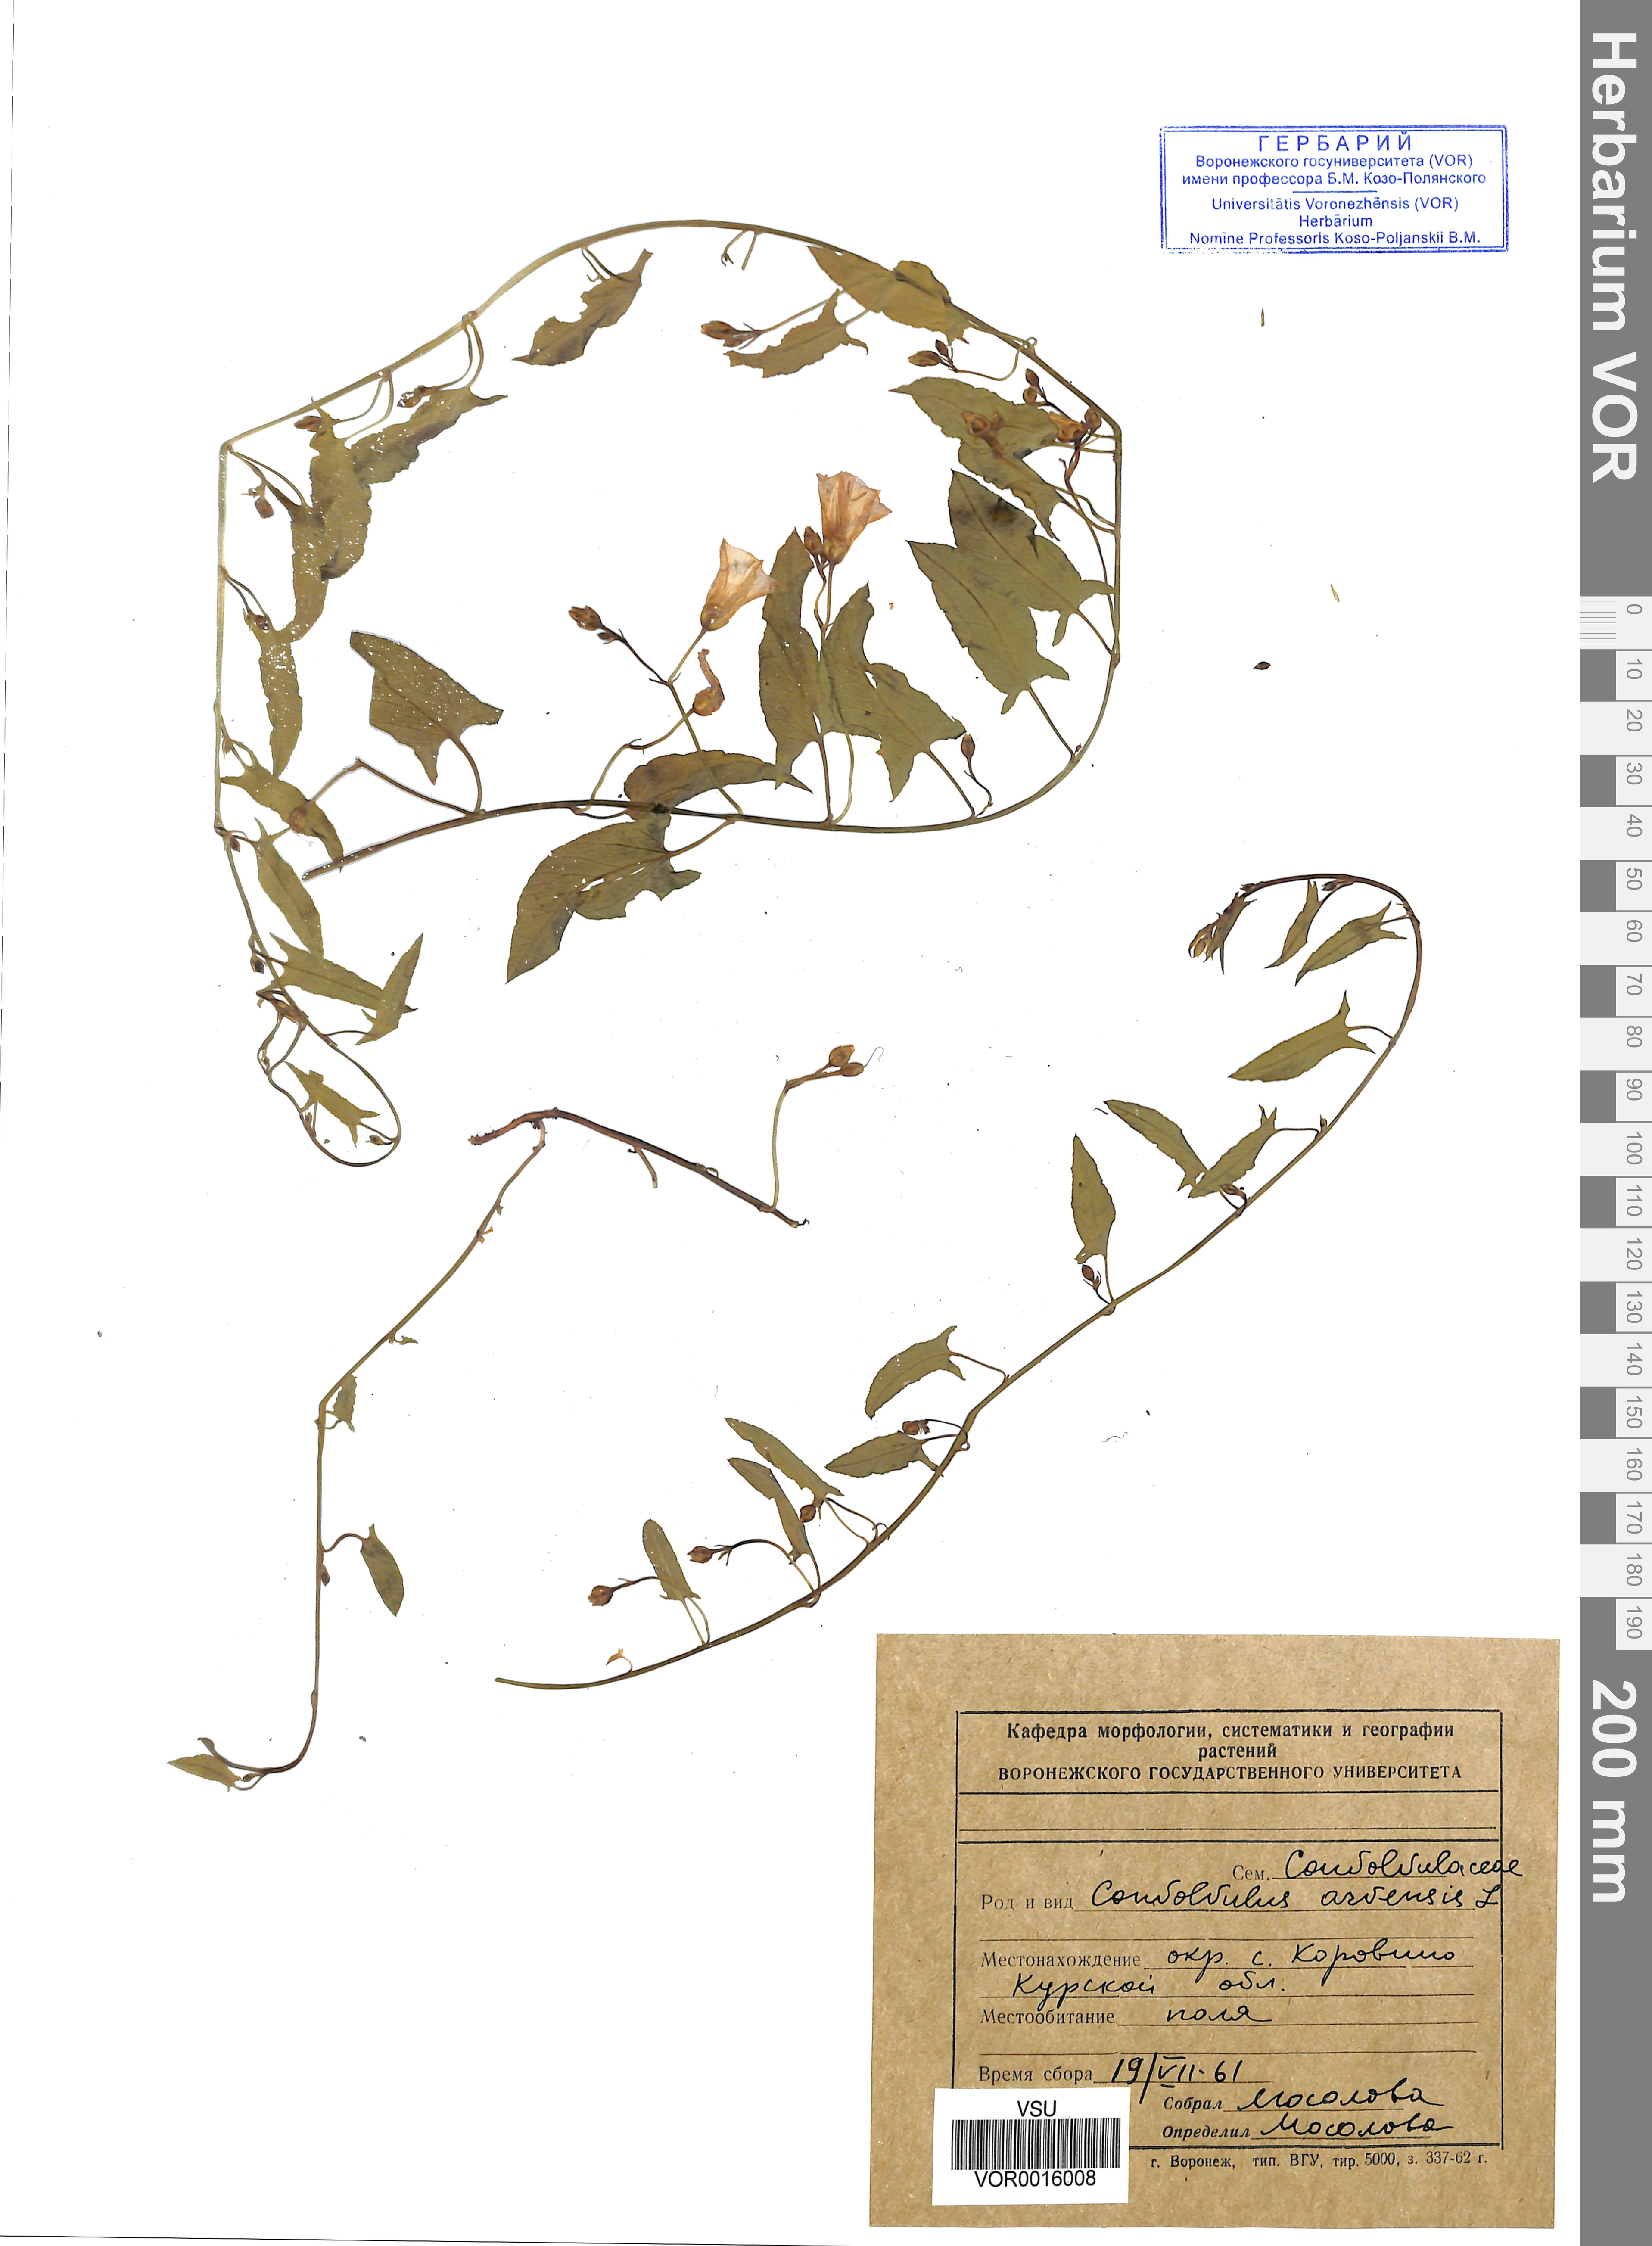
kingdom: Plantae
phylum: Tracheophyta
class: Magnoliopsida
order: Solanales
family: Convolvulaceae
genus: Convolvulus
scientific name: Convolvulus arvensis
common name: Field bindweed
